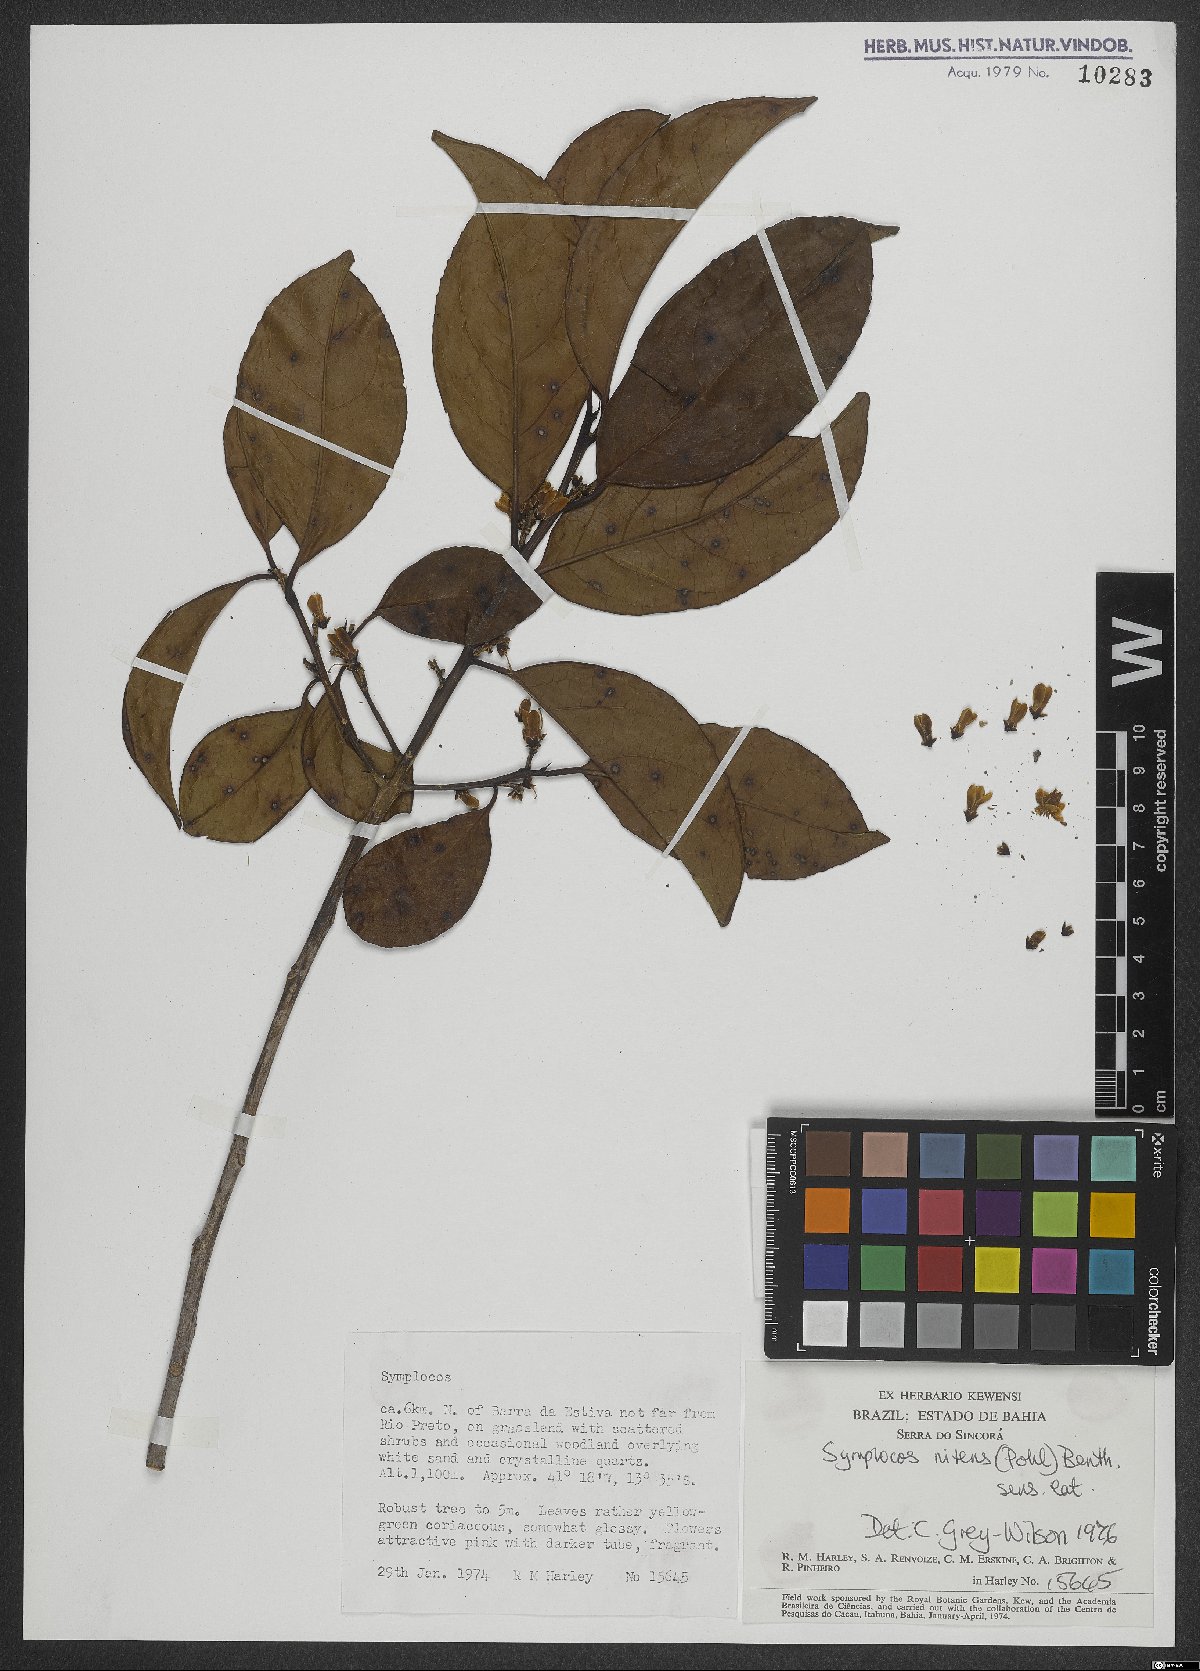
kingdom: Plantae
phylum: Tracheophyta
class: Magnoliopsida
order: Ericales
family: Symplocaceae
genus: Symplocos
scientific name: Symplocos nitens
